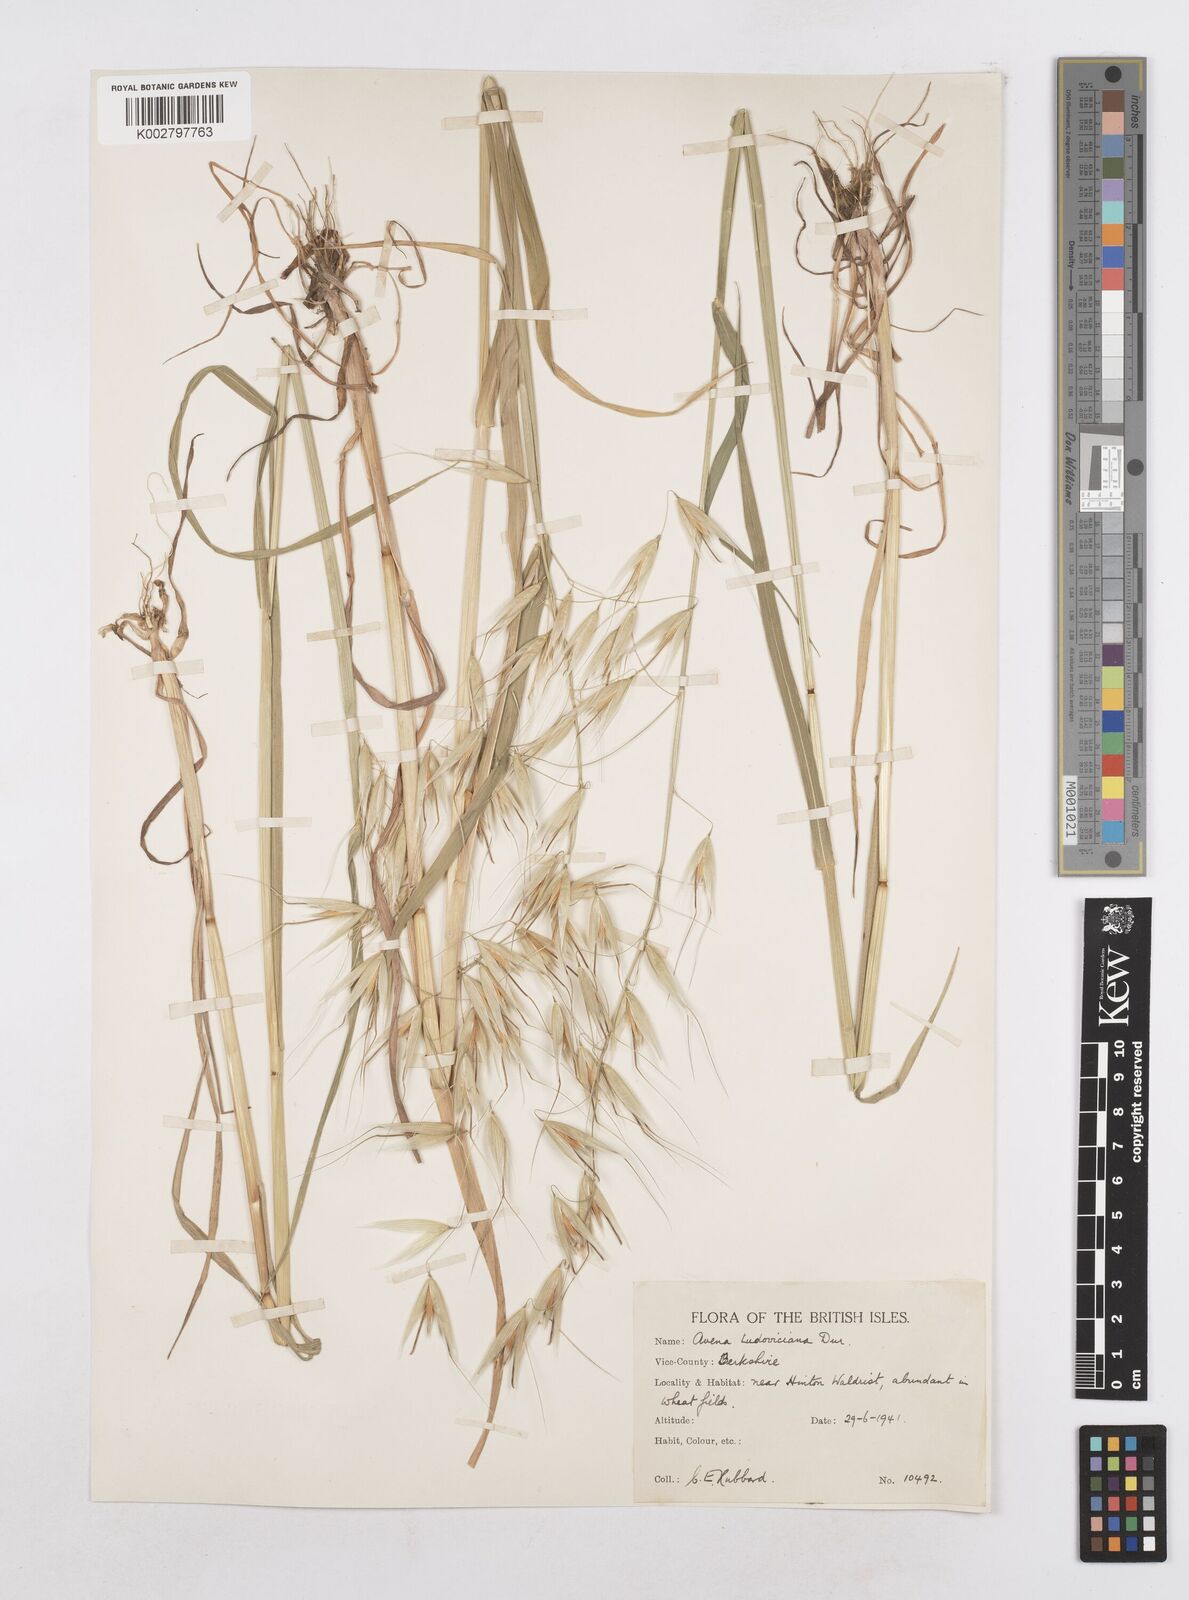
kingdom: Plantae
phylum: Tracheophyta
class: Liliopsida
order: Poales
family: Poaceae
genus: Avena
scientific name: Avena sterilis
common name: Animated oat
